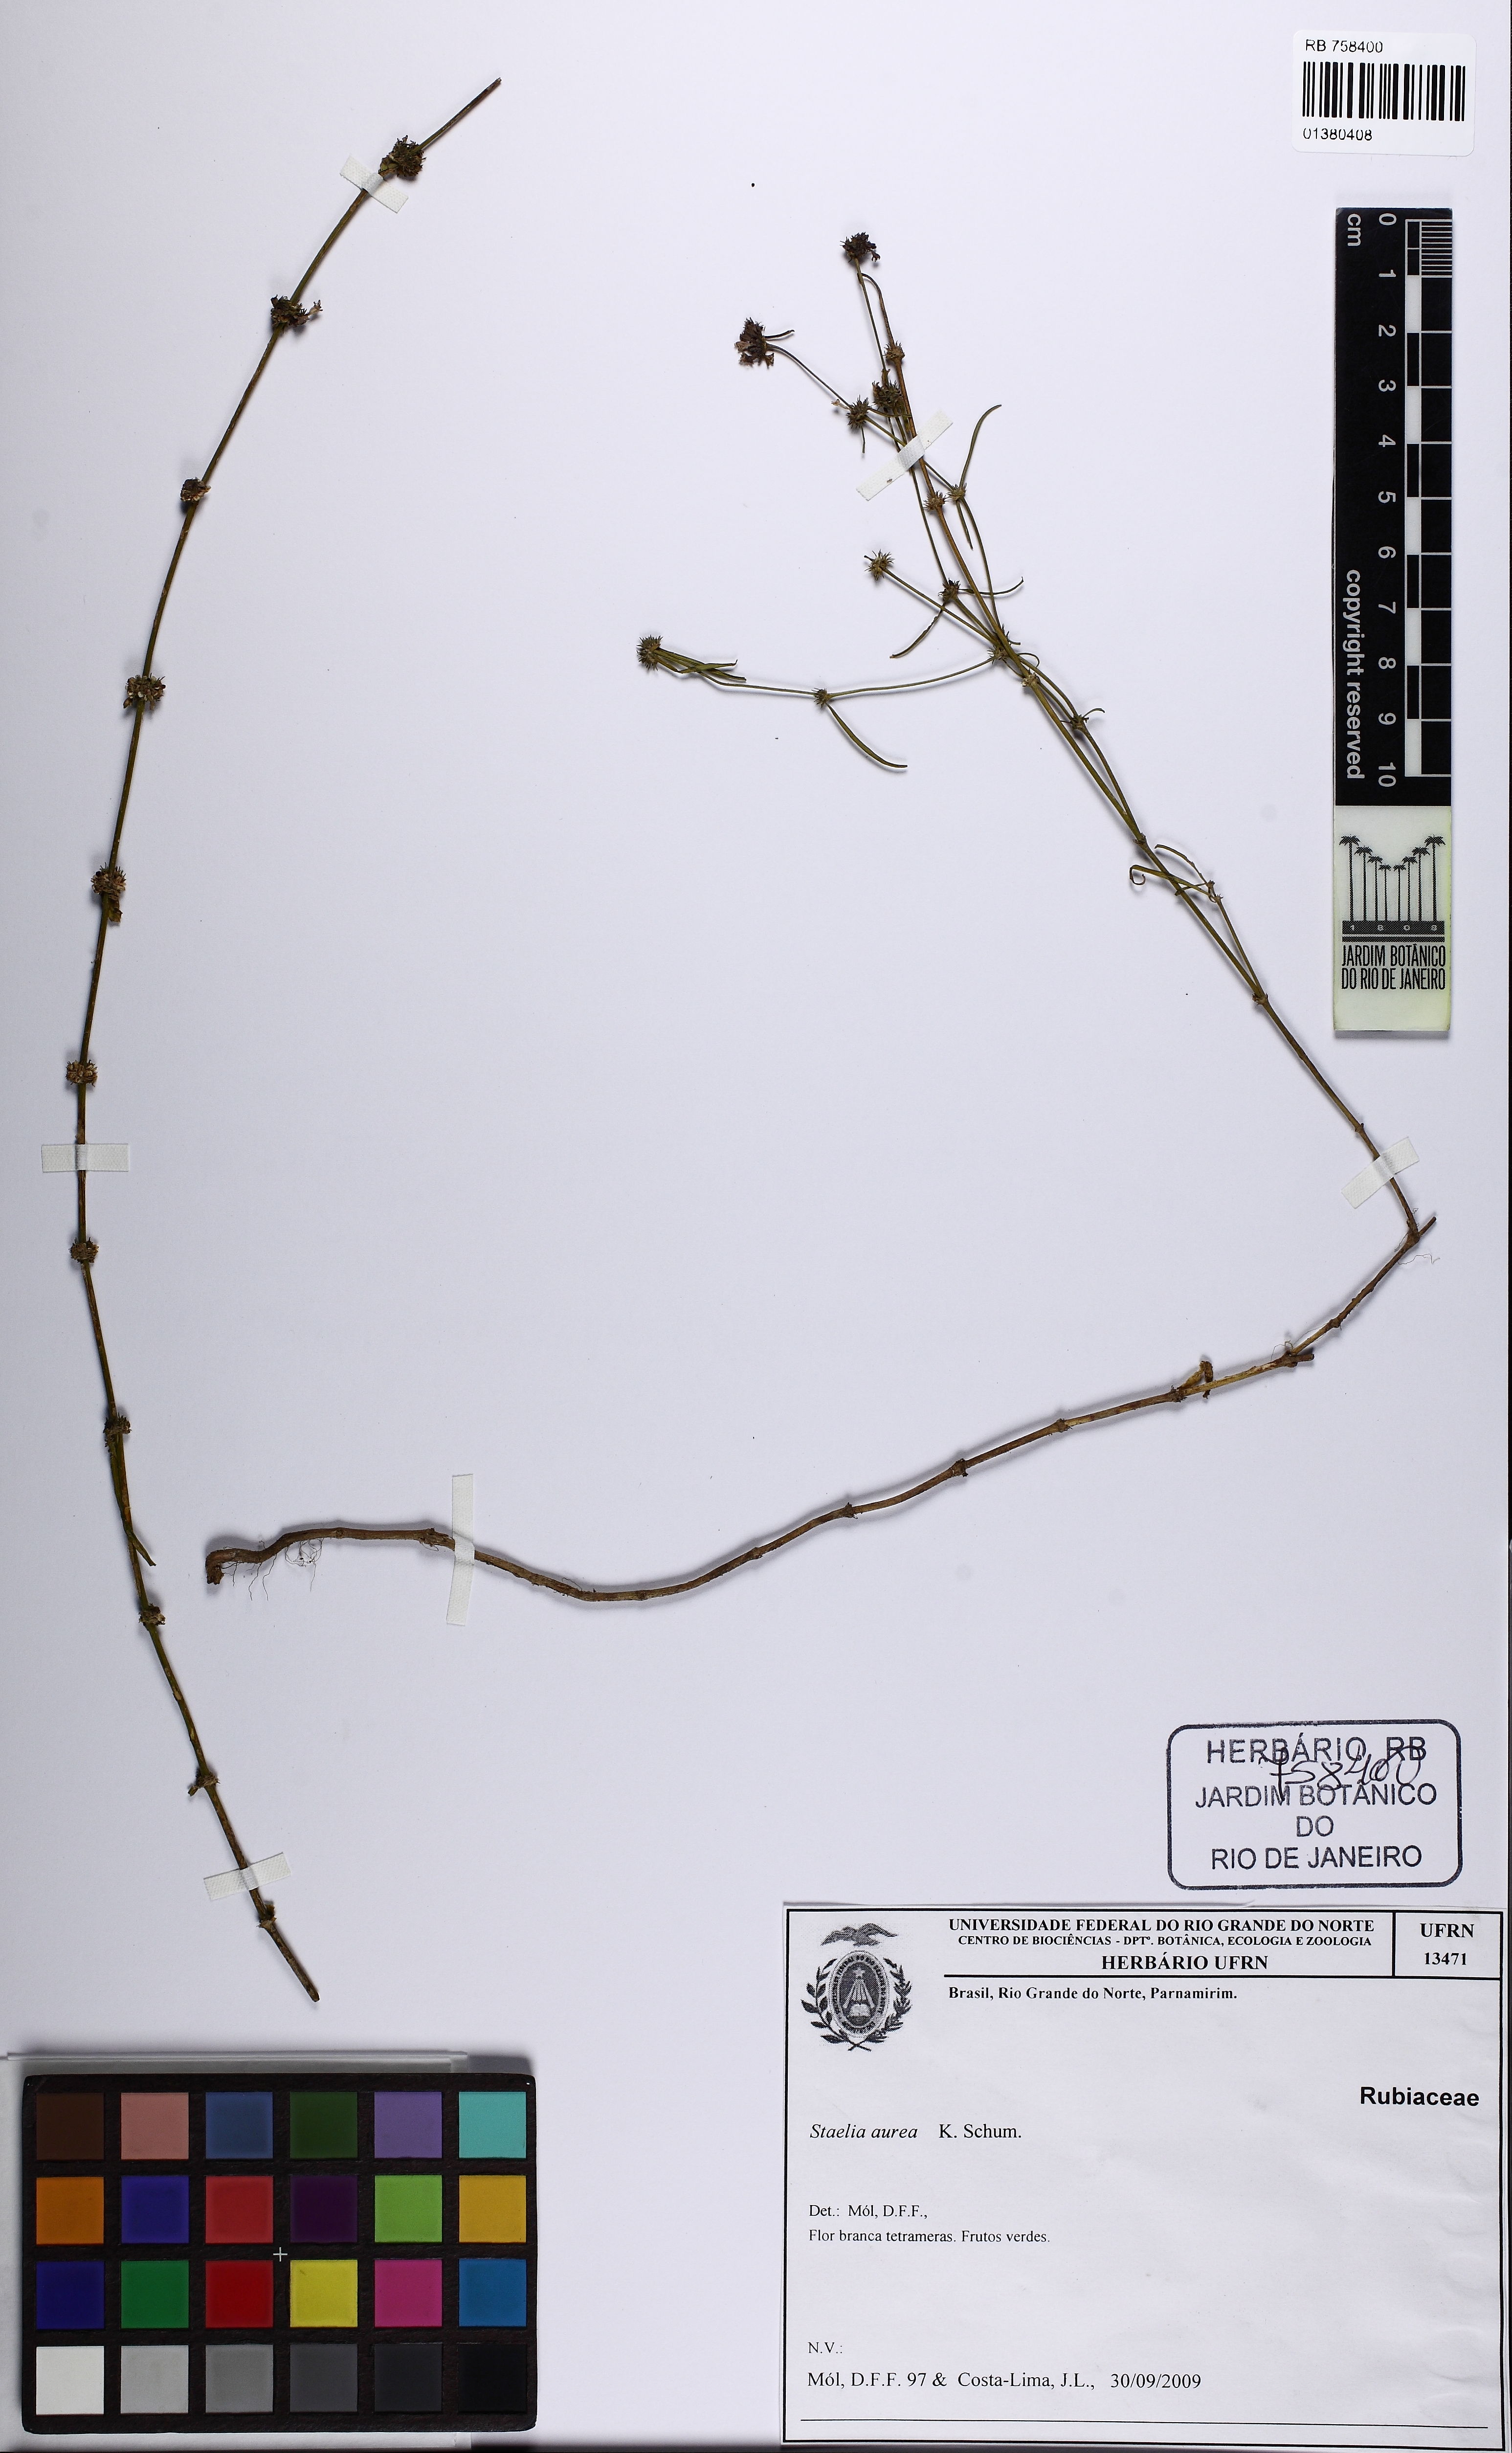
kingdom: Plantae
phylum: Tracheophyta
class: Magnoliopsida
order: Gentianales
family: Rubiaceae
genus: Staelia
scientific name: Staelia aurea
